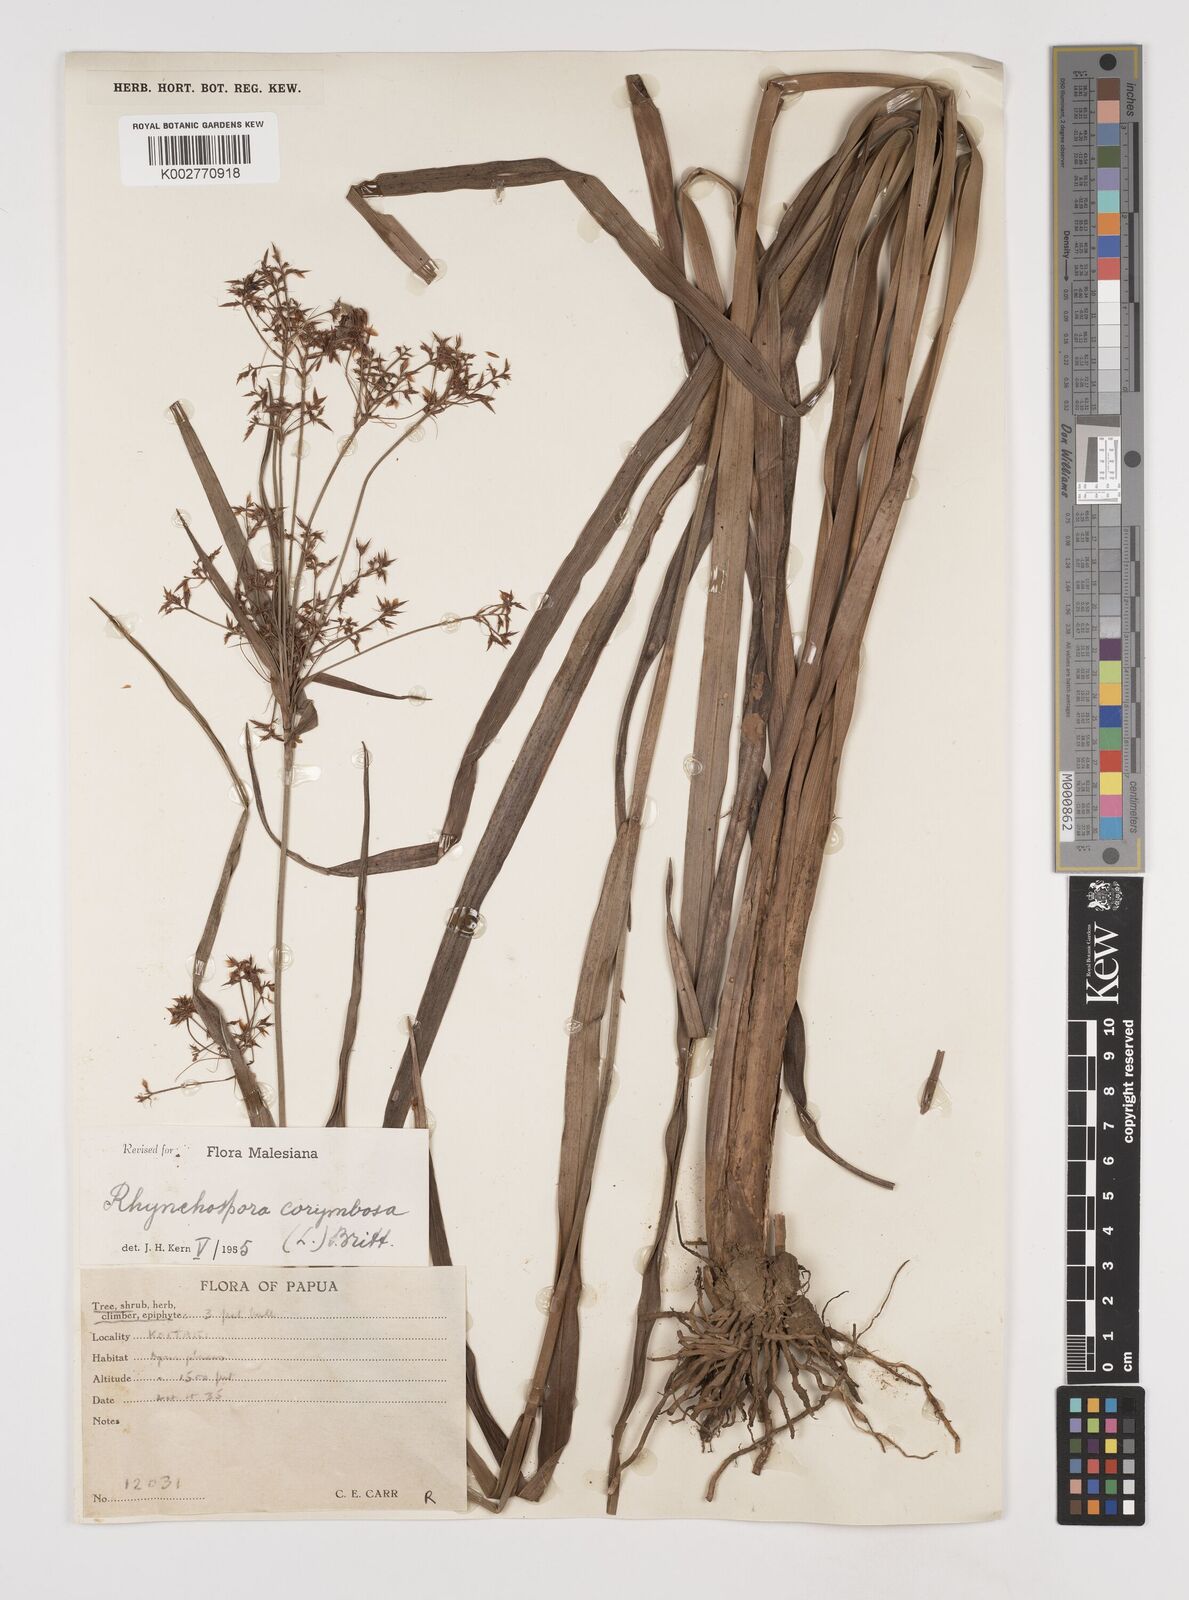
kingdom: Plantae
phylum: Tracheophyta
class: Liliopsida
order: Poales
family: Cyperaceae
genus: Rhynchospora
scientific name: Rhynchospora corymbosa
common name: Golden beak sedge
